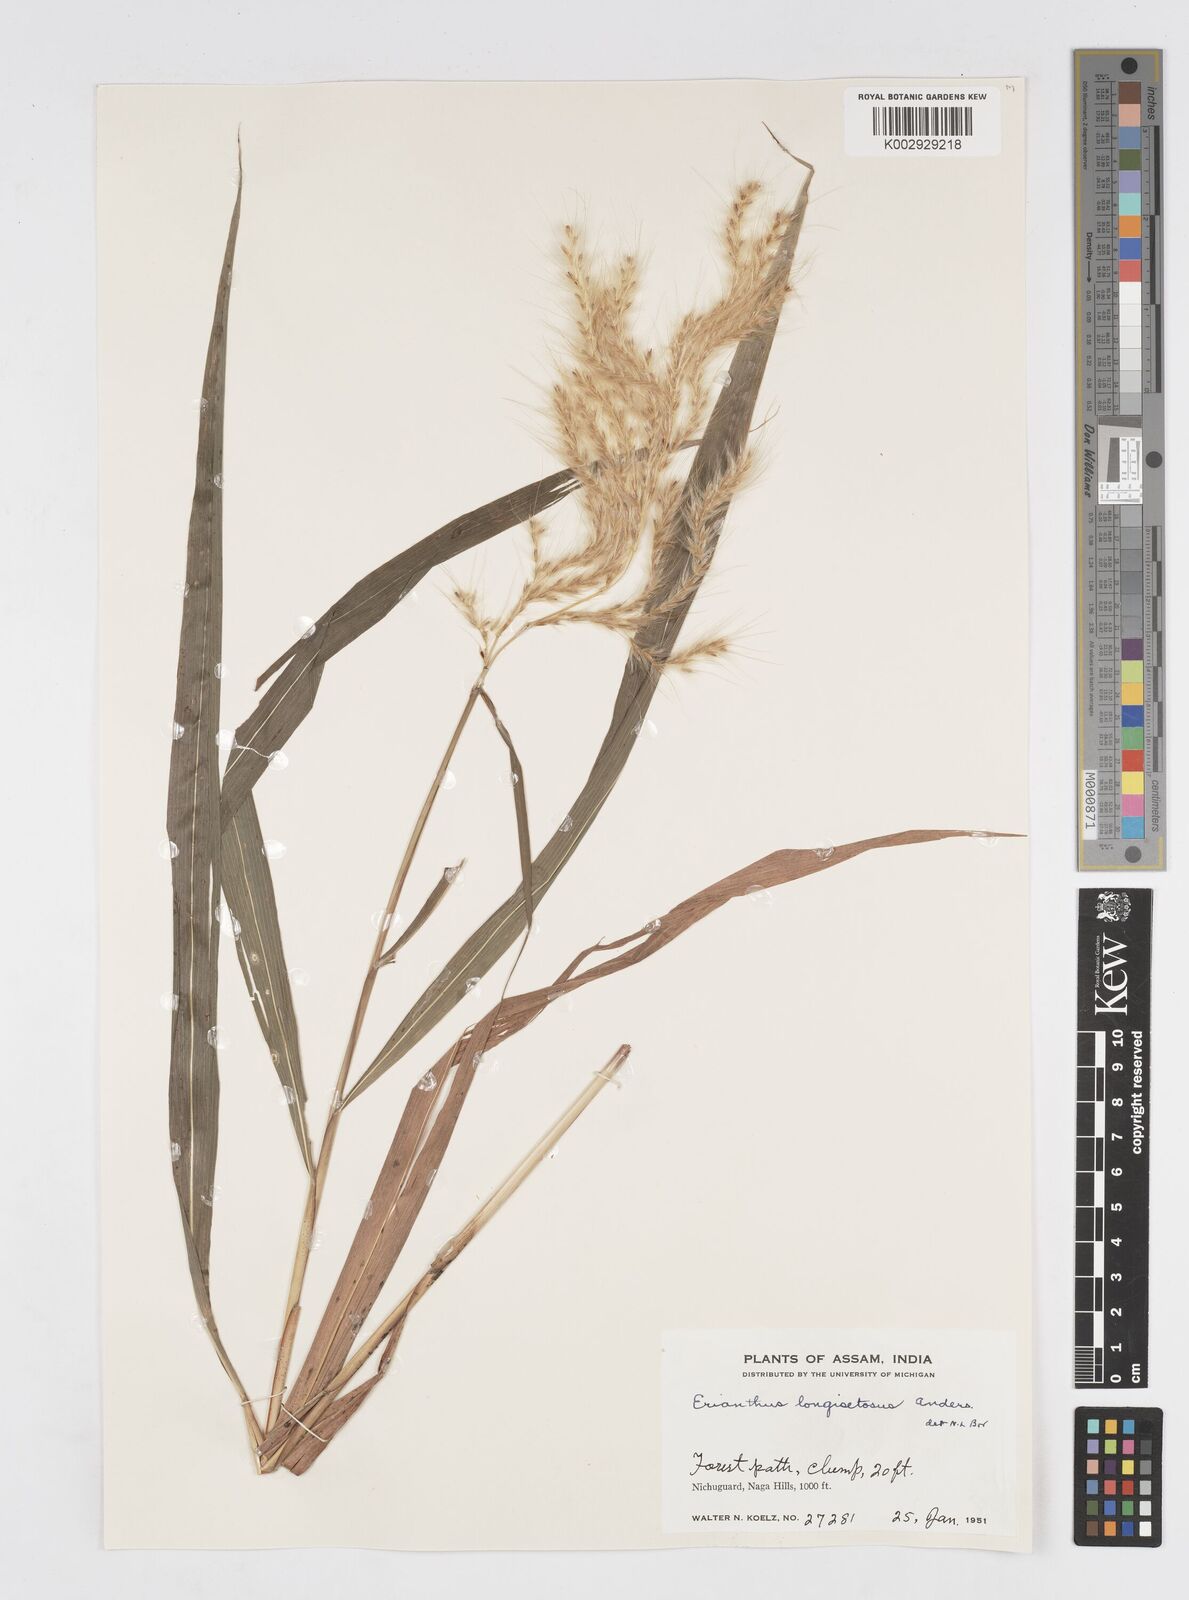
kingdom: Plantae
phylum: Tracheophyta
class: Liliopsida
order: Poales
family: Poaceae
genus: Melinis
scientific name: Melinis longiseta
